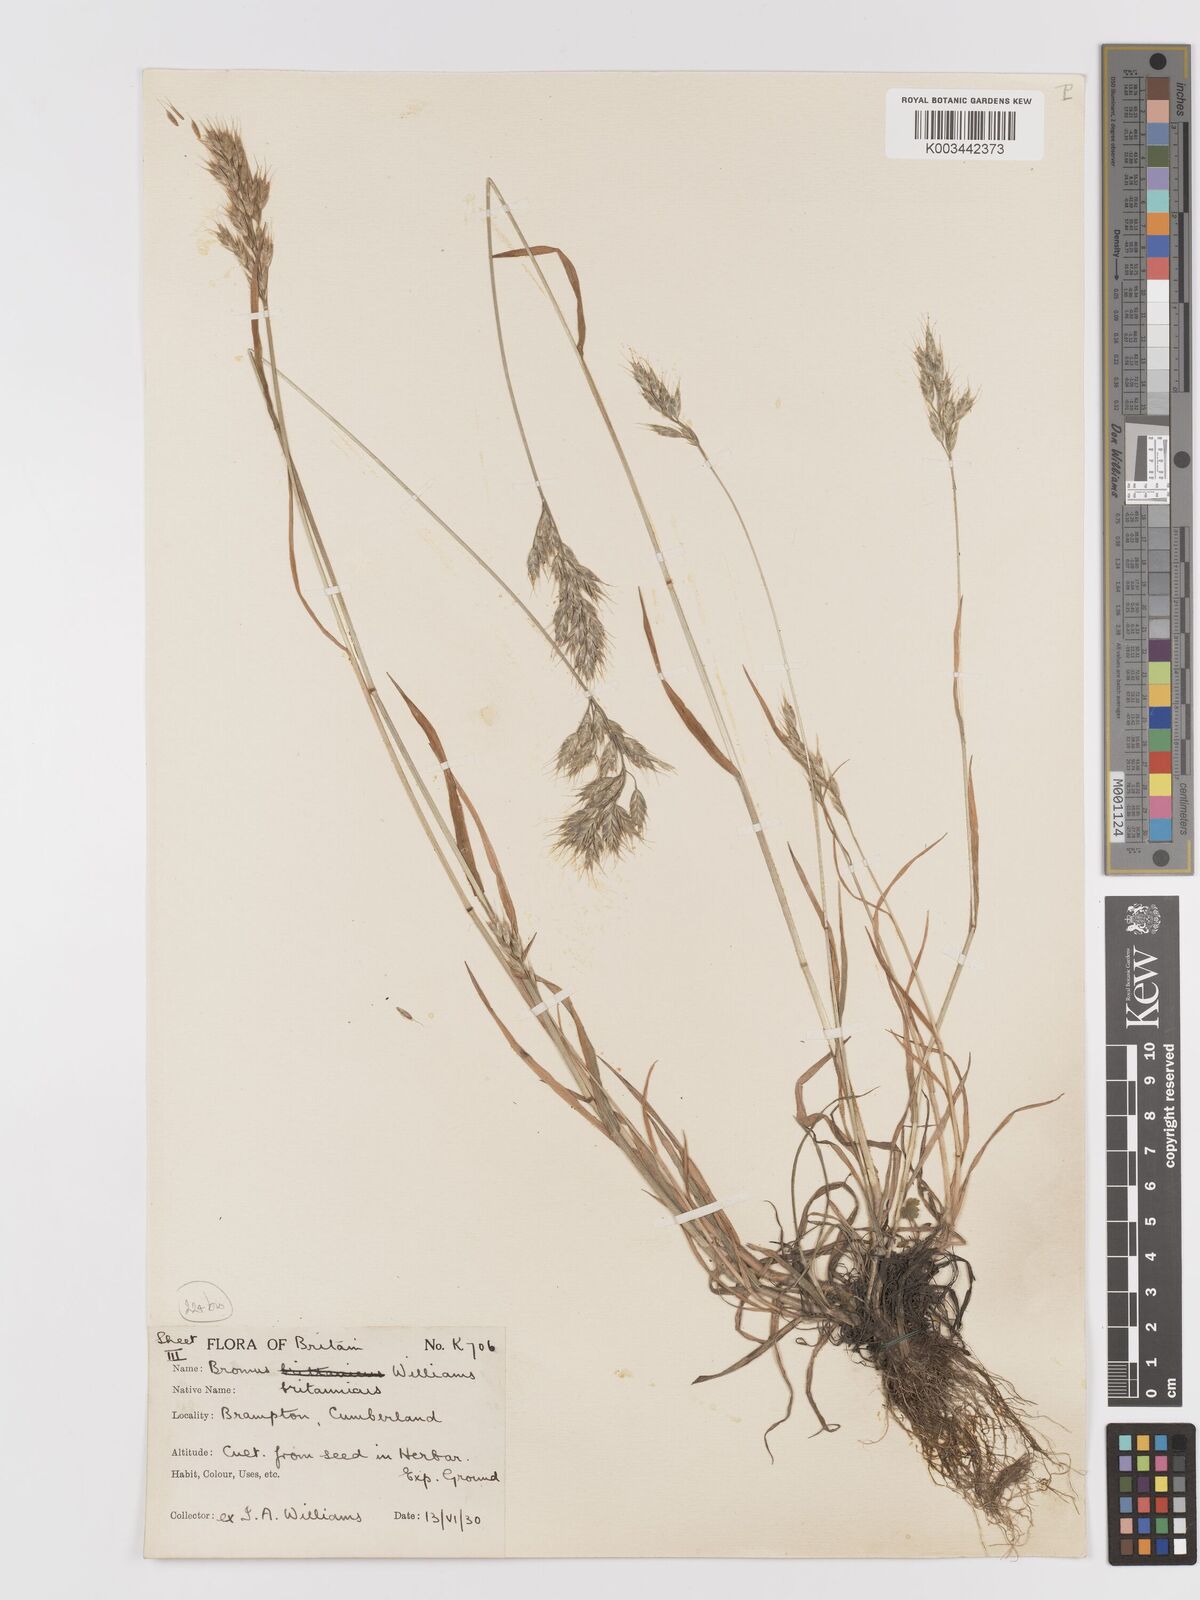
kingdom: Plantae
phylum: Tracheophyta
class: Liliopsida
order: Poales
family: Poaceae
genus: Bromus
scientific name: Bromus lepidus
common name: Slender soft-brome
